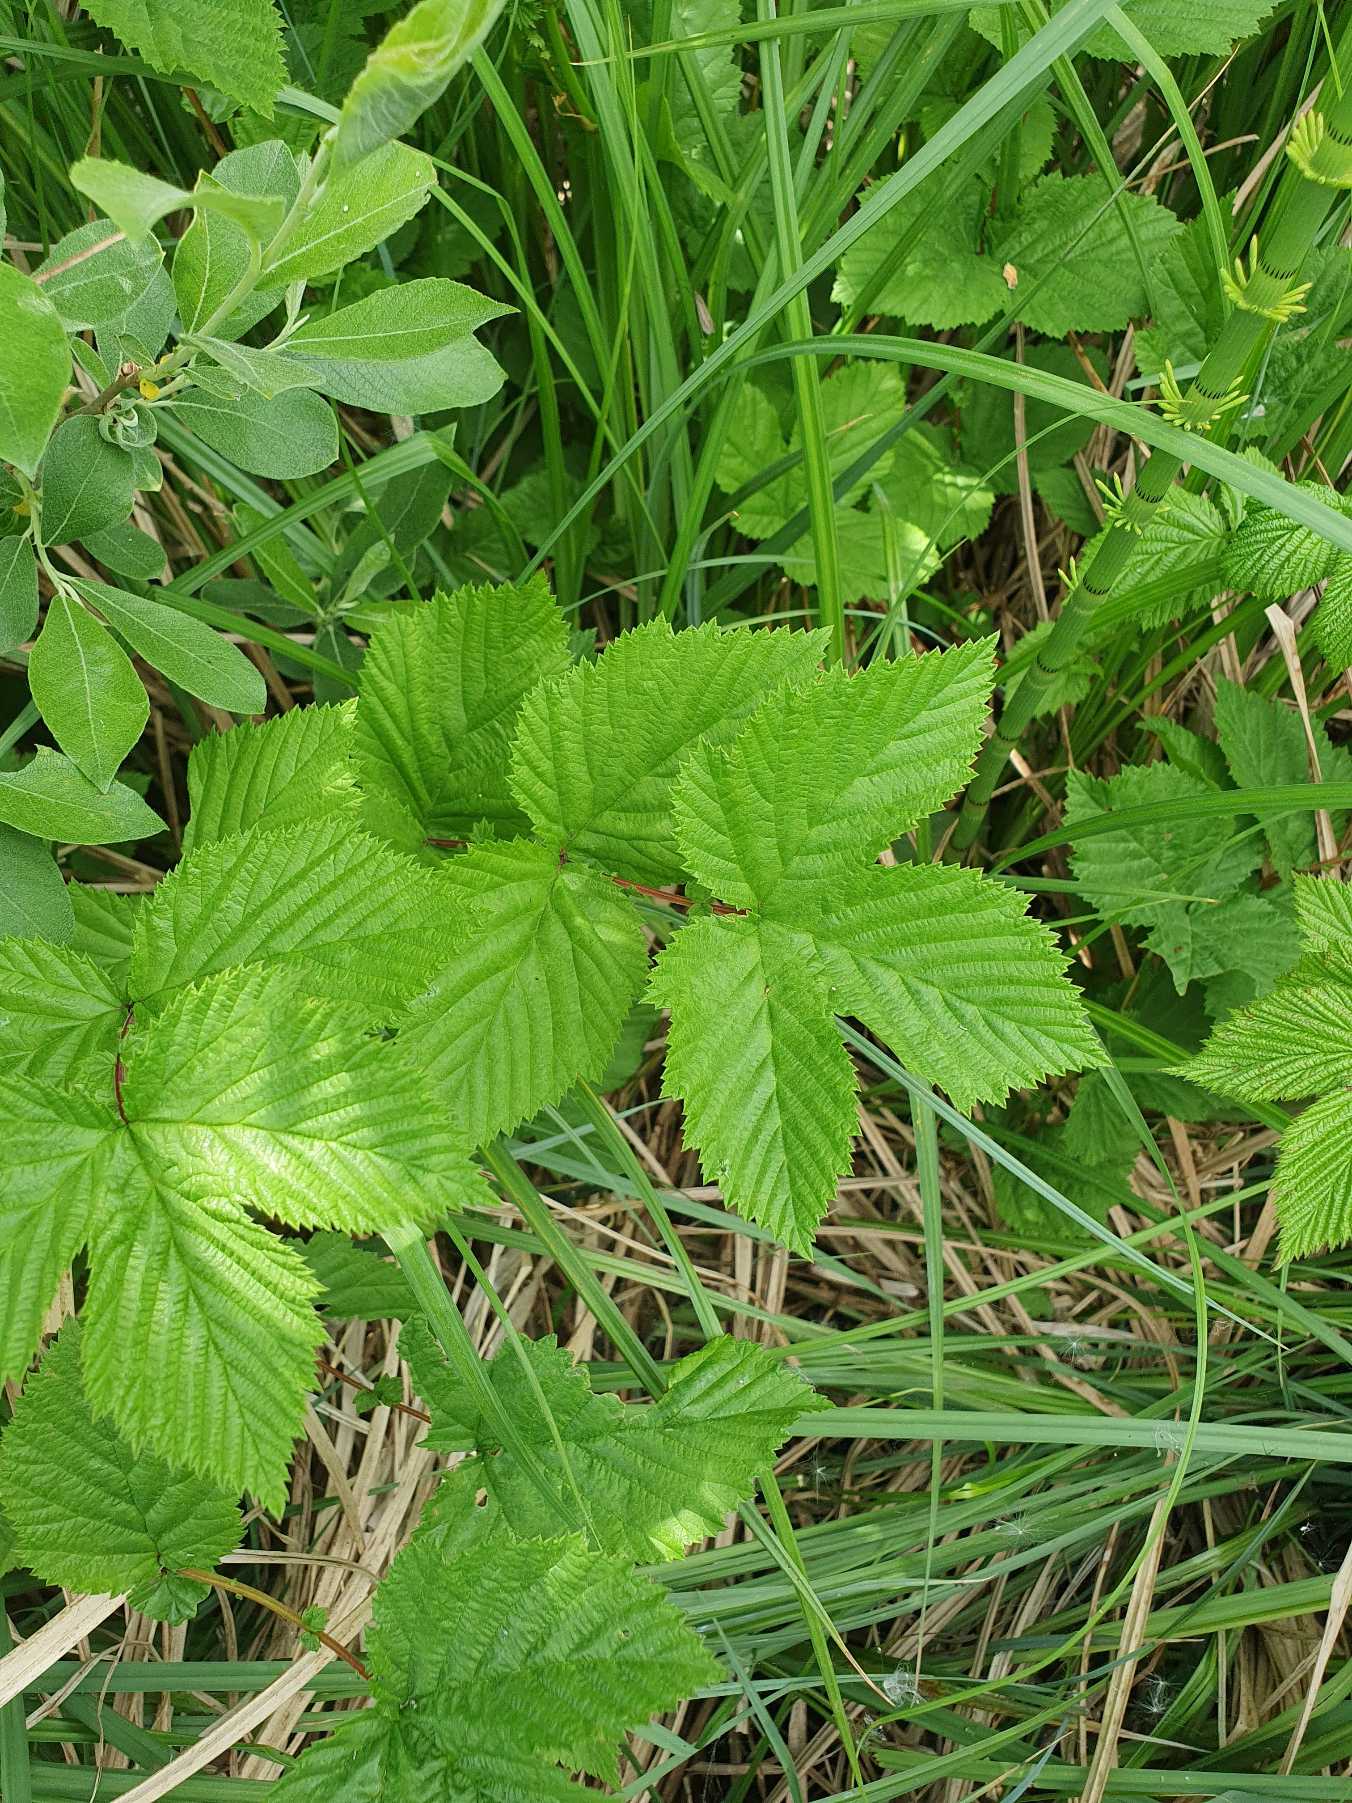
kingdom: Plantae
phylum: Tracheophyta
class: Magnoliopsida
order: Rosales
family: Rosaceae
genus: Filipendula
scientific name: Filipendula ulmaria
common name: Almindelig mjødurt
